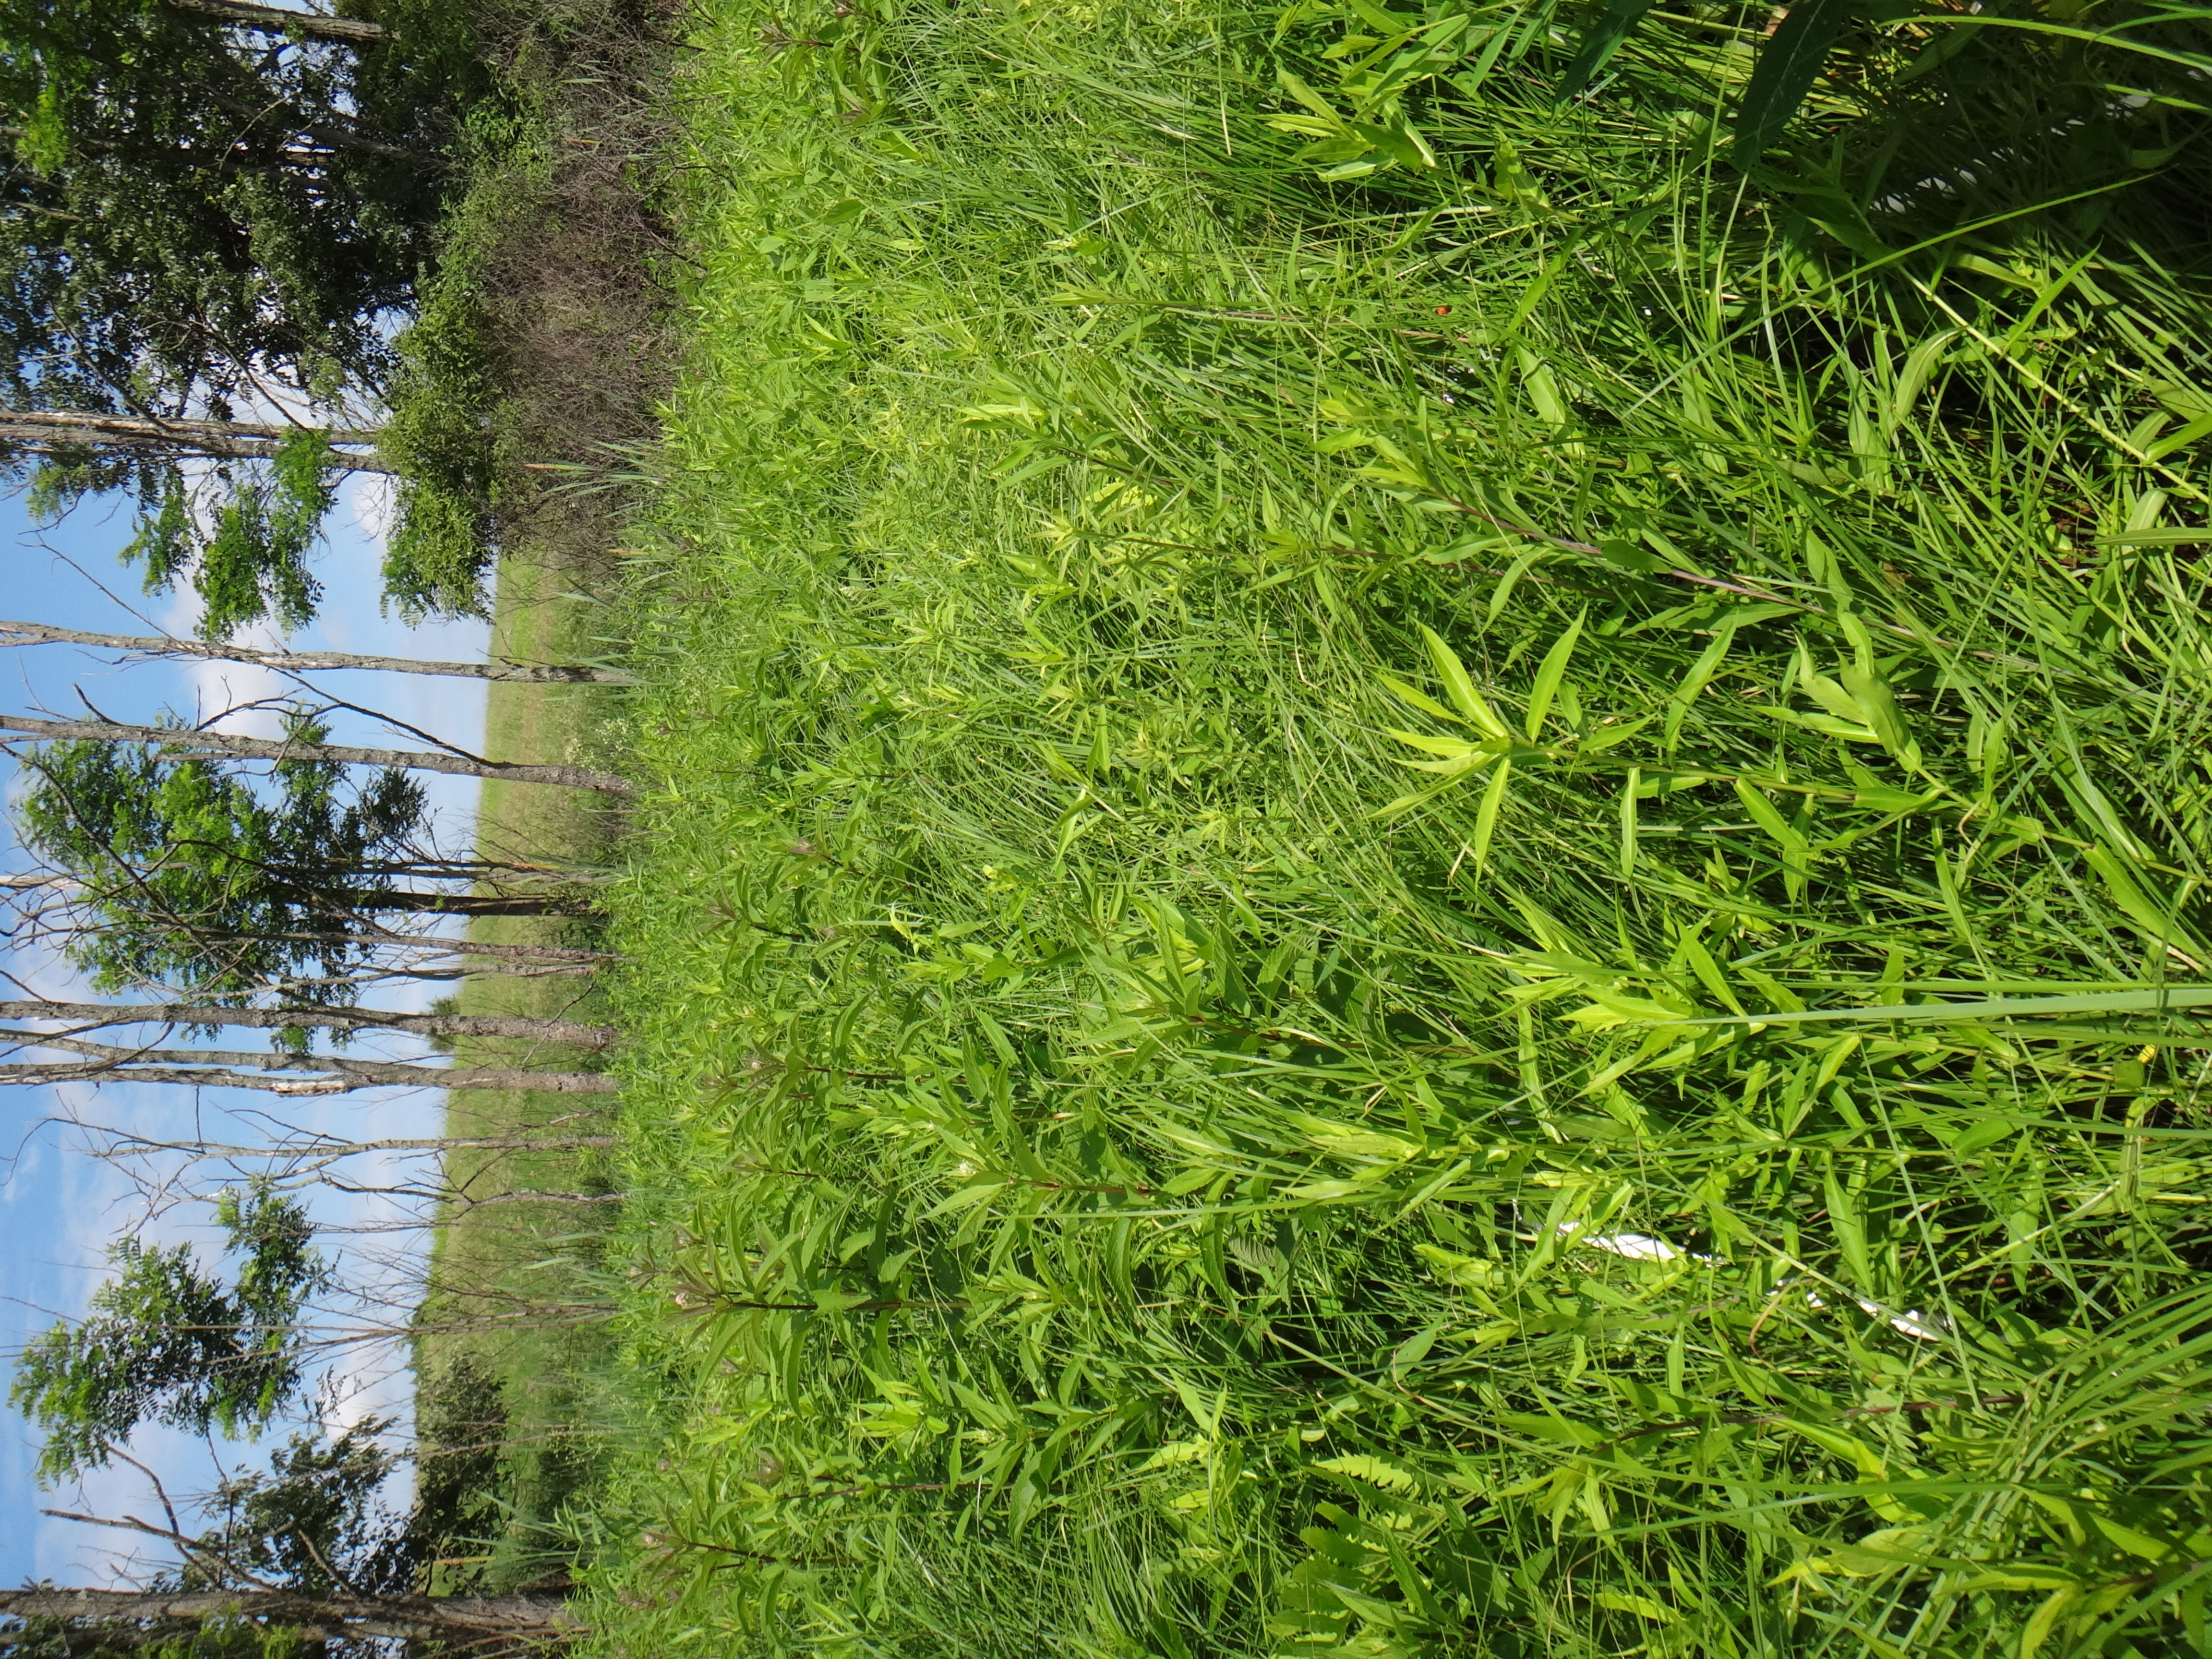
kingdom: Plantae
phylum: Tracheophyta
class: Magnoliopsida
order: Ranunculales
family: Ranunculaceae
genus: Caltha
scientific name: Caltha palustris
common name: Marsh marigold
